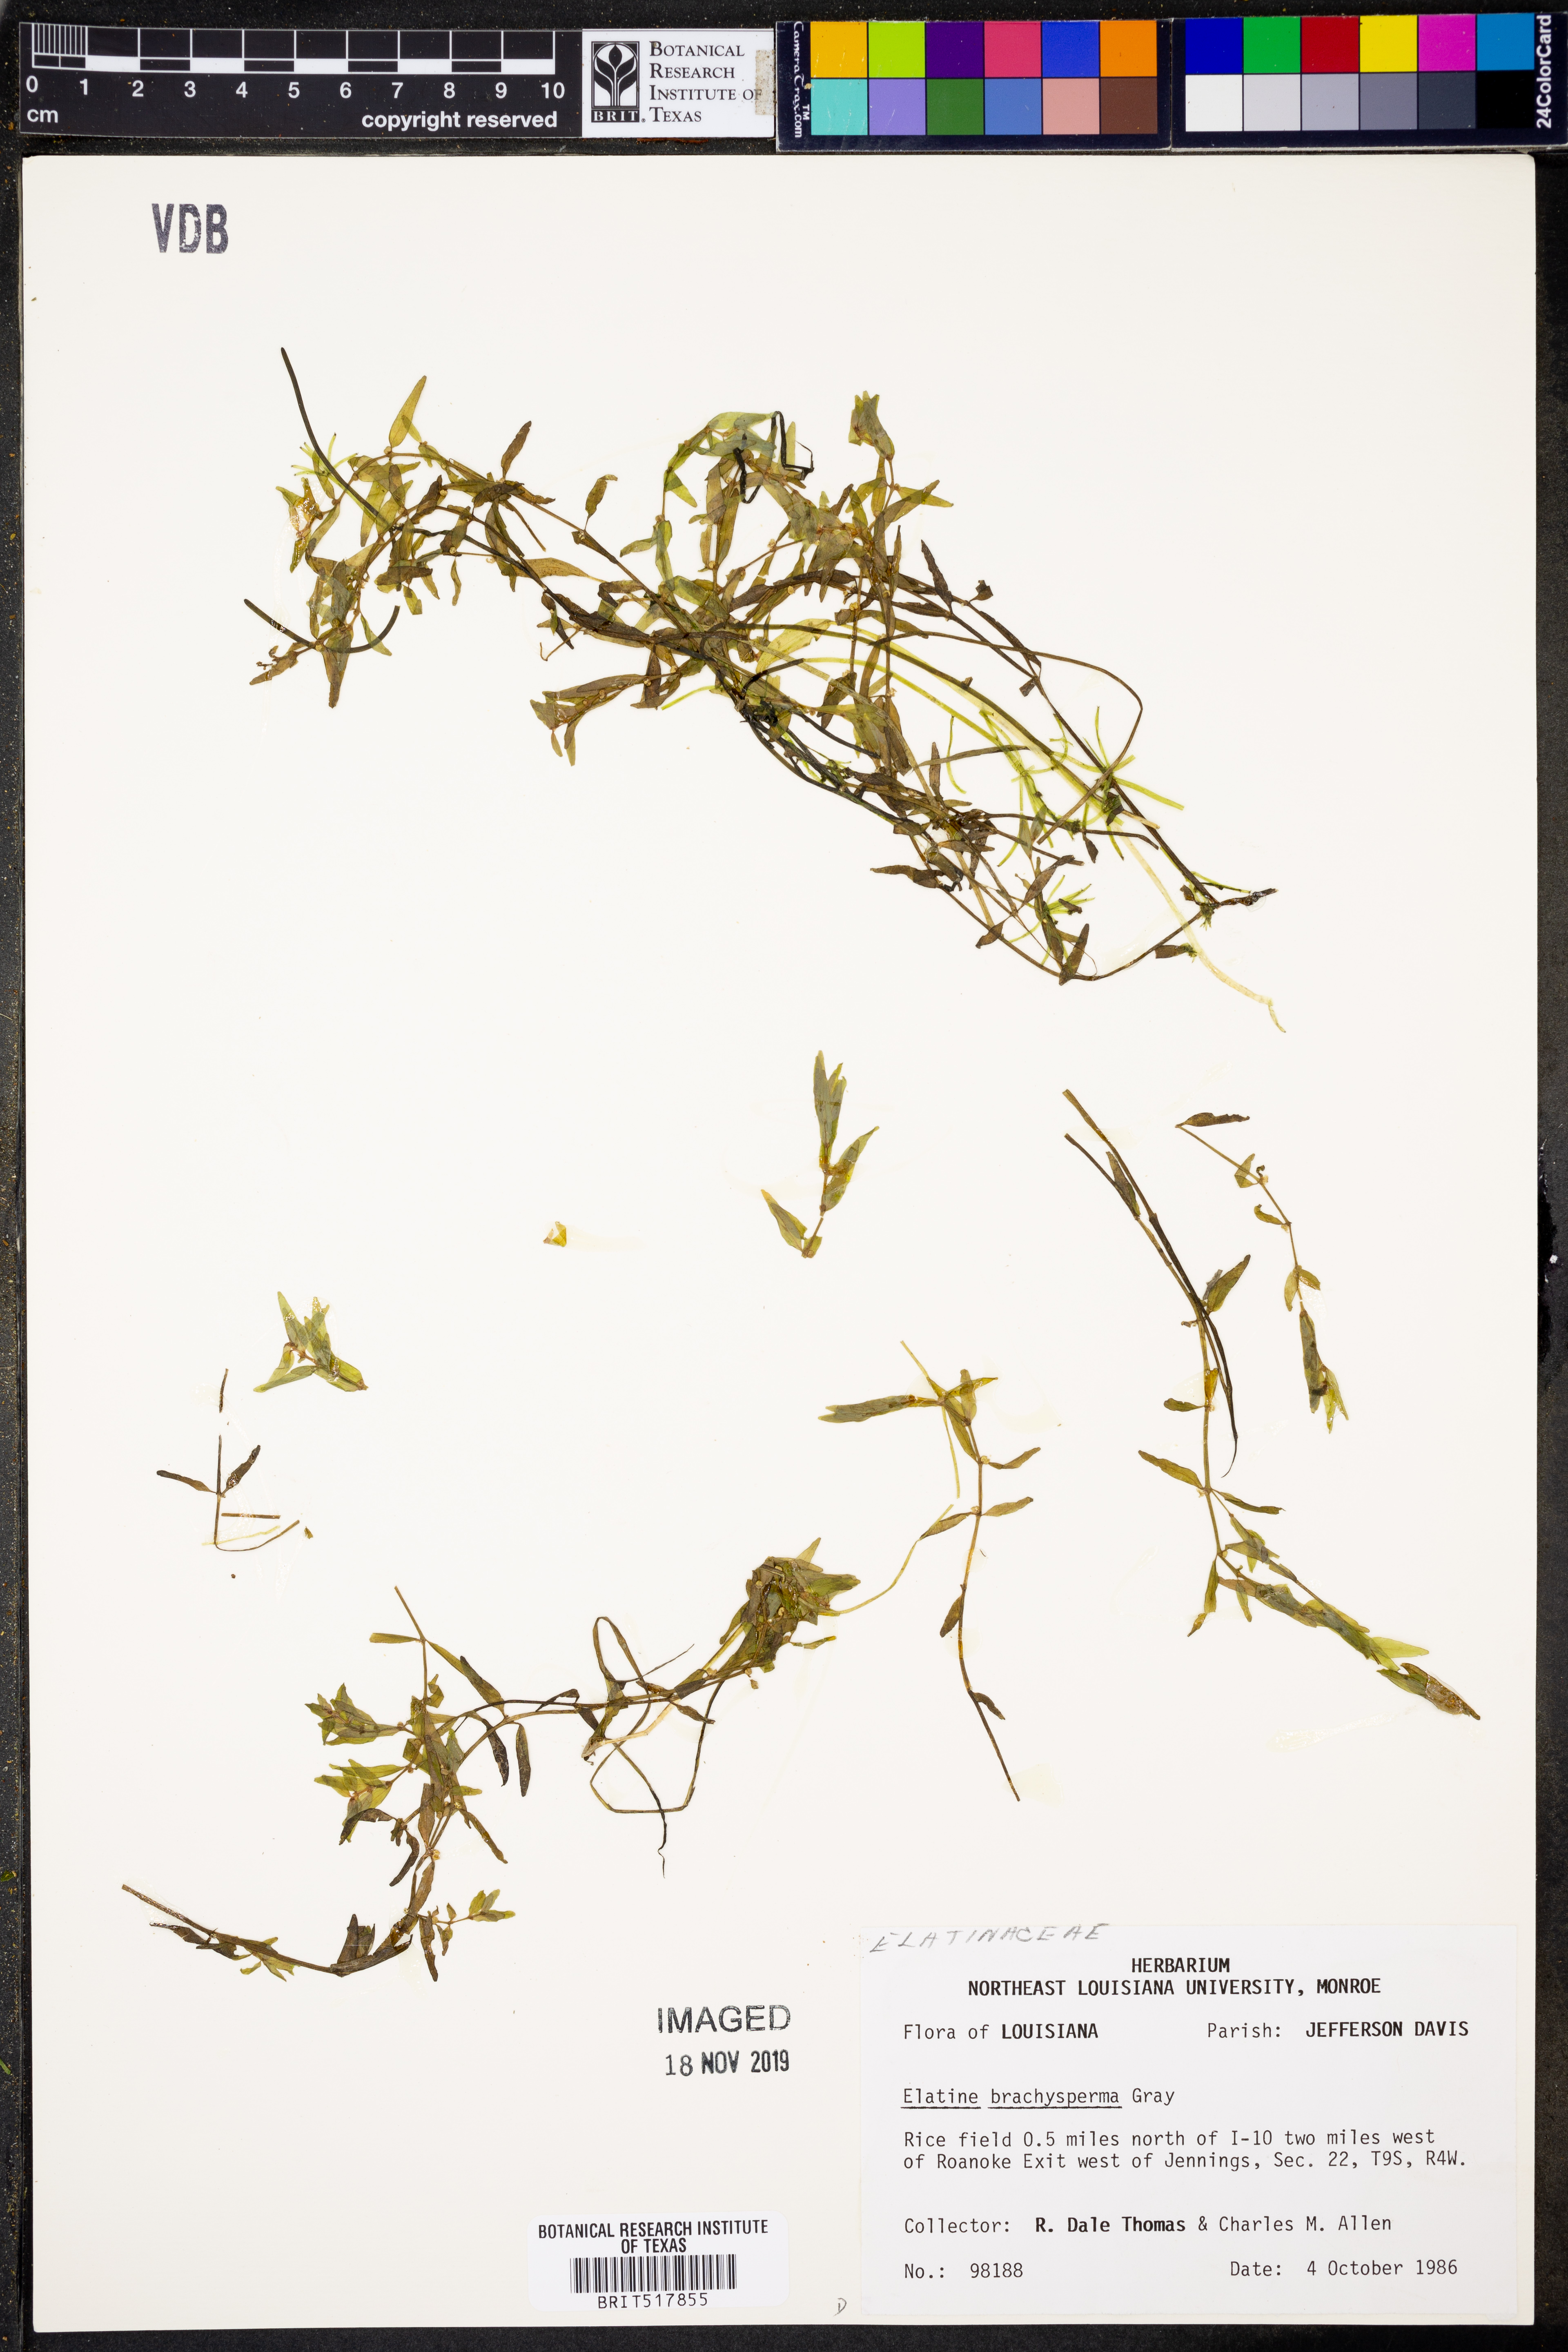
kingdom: Plantae
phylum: Tracheophyta
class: Magnoliopsida
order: Malpighiales
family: Elatinaceae
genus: Elatine
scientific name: Elatine brachysperma
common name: Short-fruited waterwort
